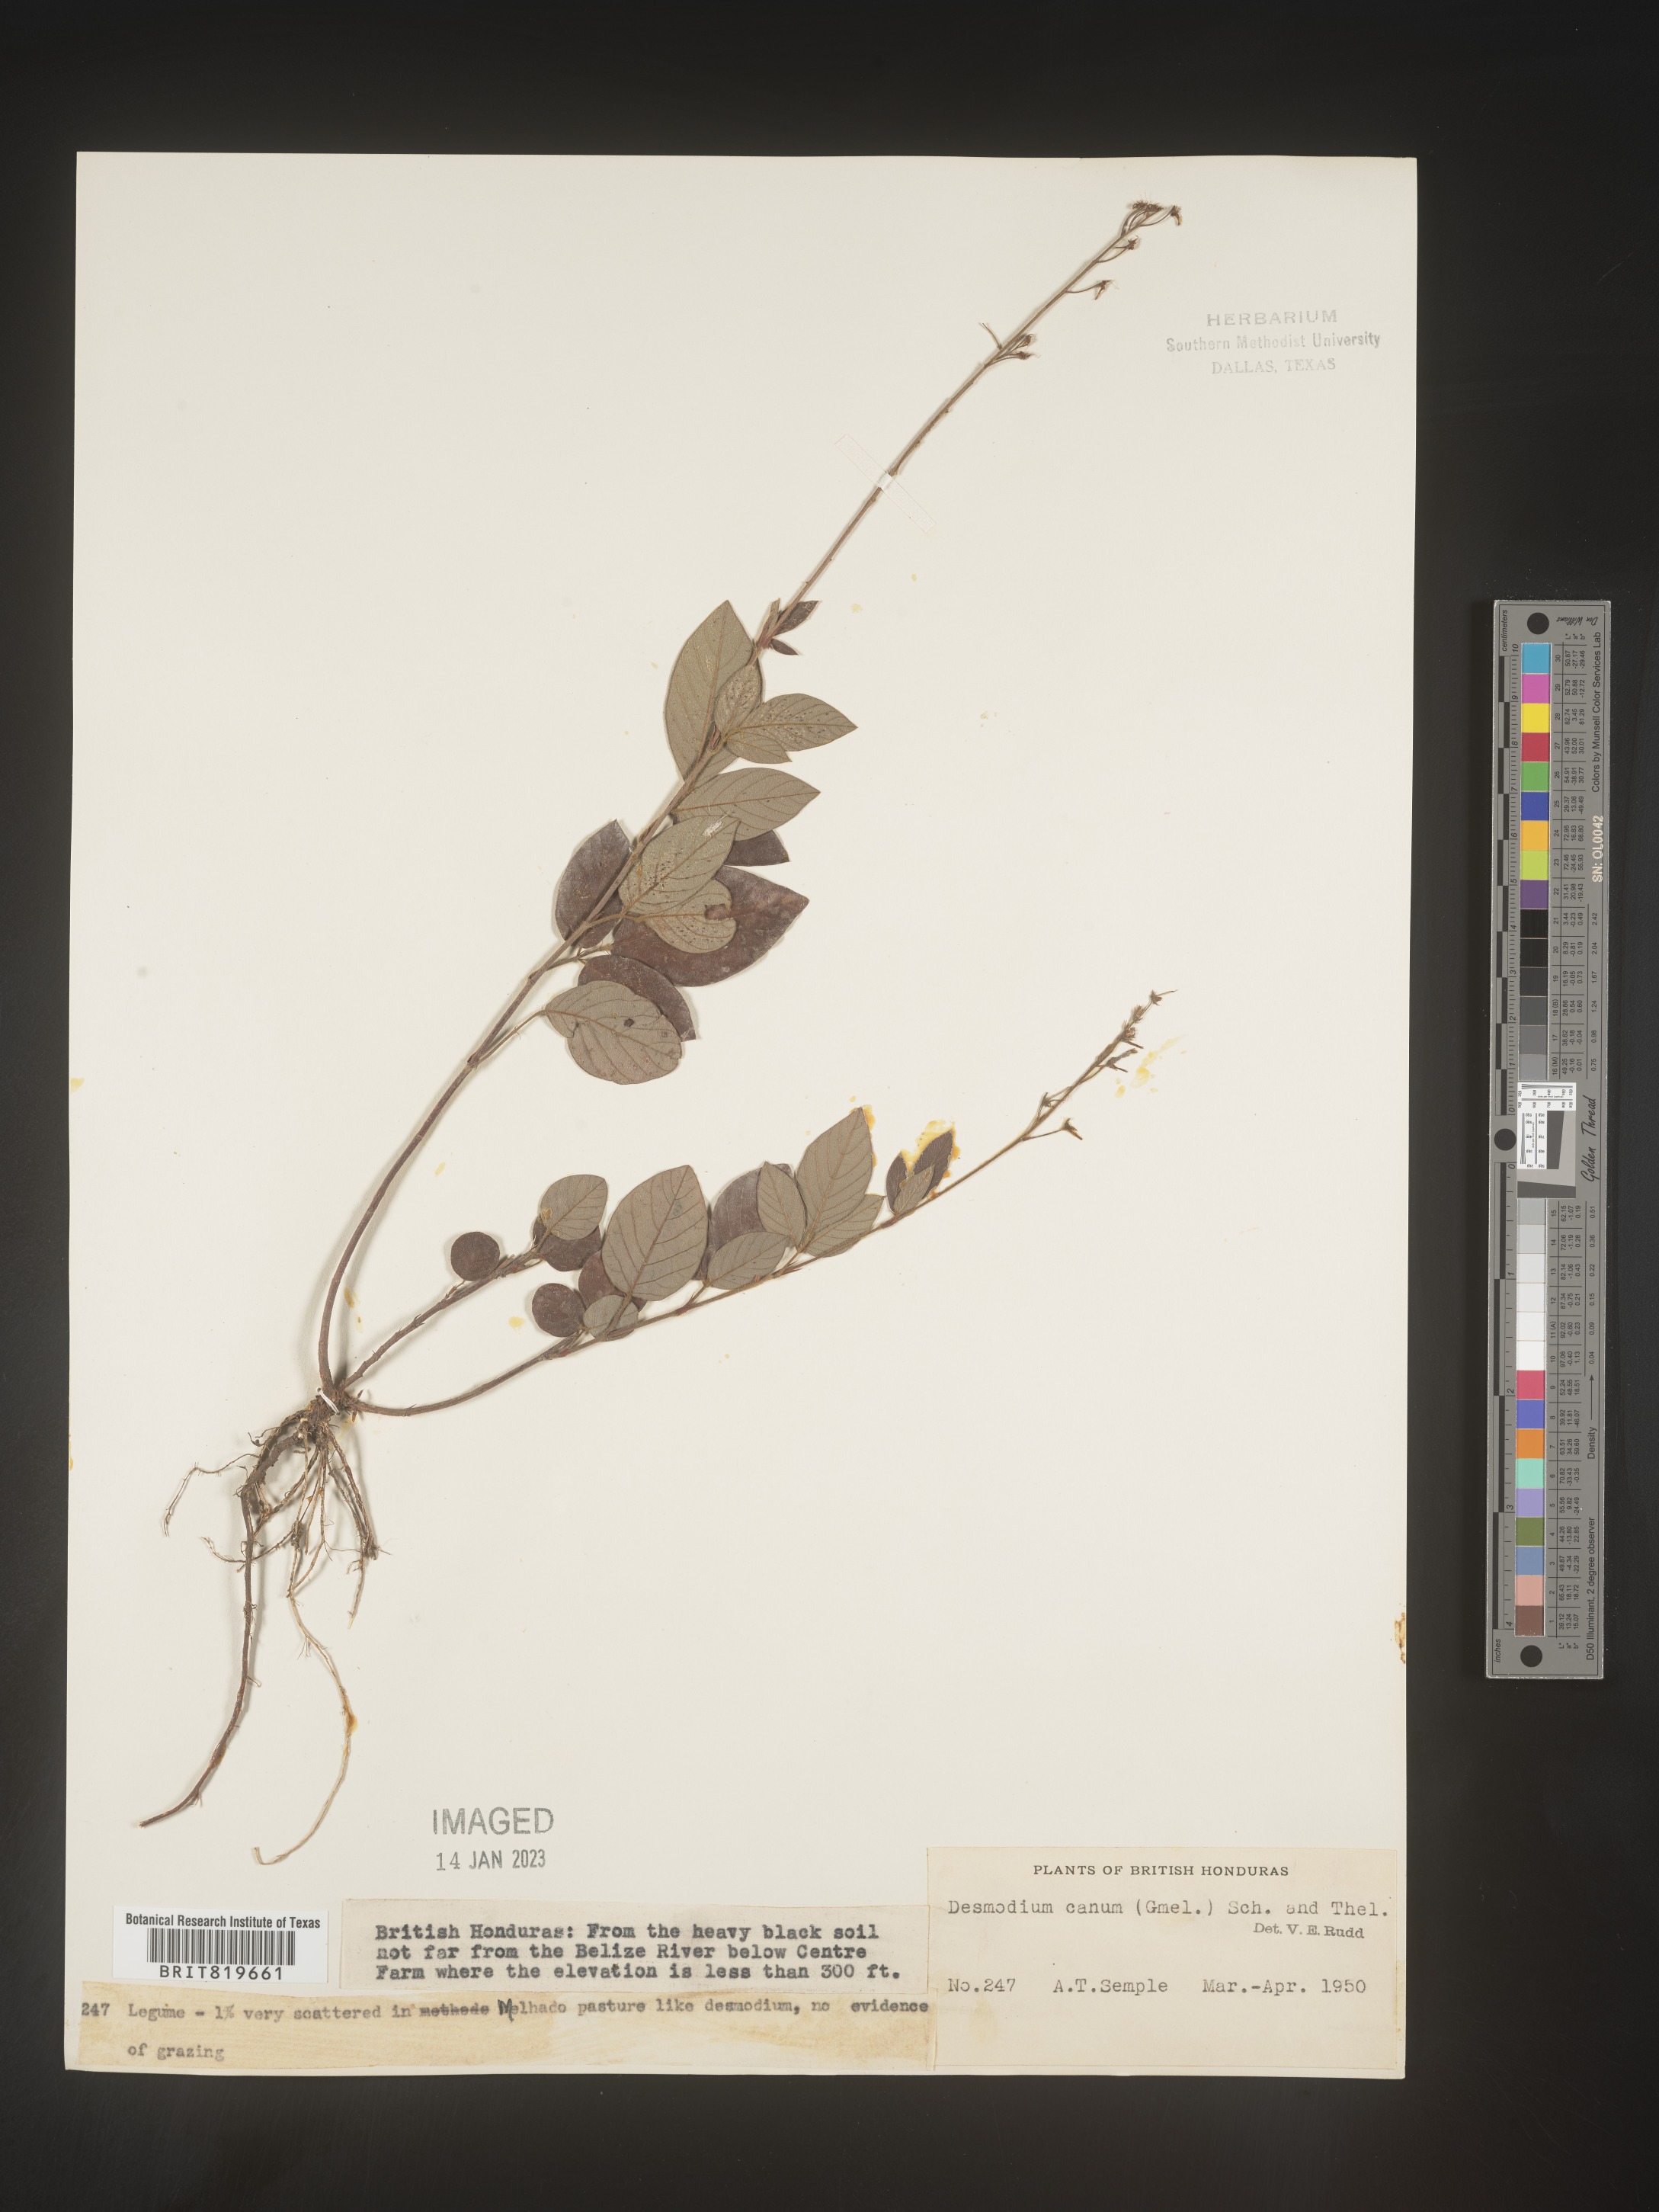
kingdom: Plantae
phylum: Tracheophyta
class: Magnoliopsida
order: Fabales
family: Fabaceae
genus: Desmodium
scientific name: Desmodium
